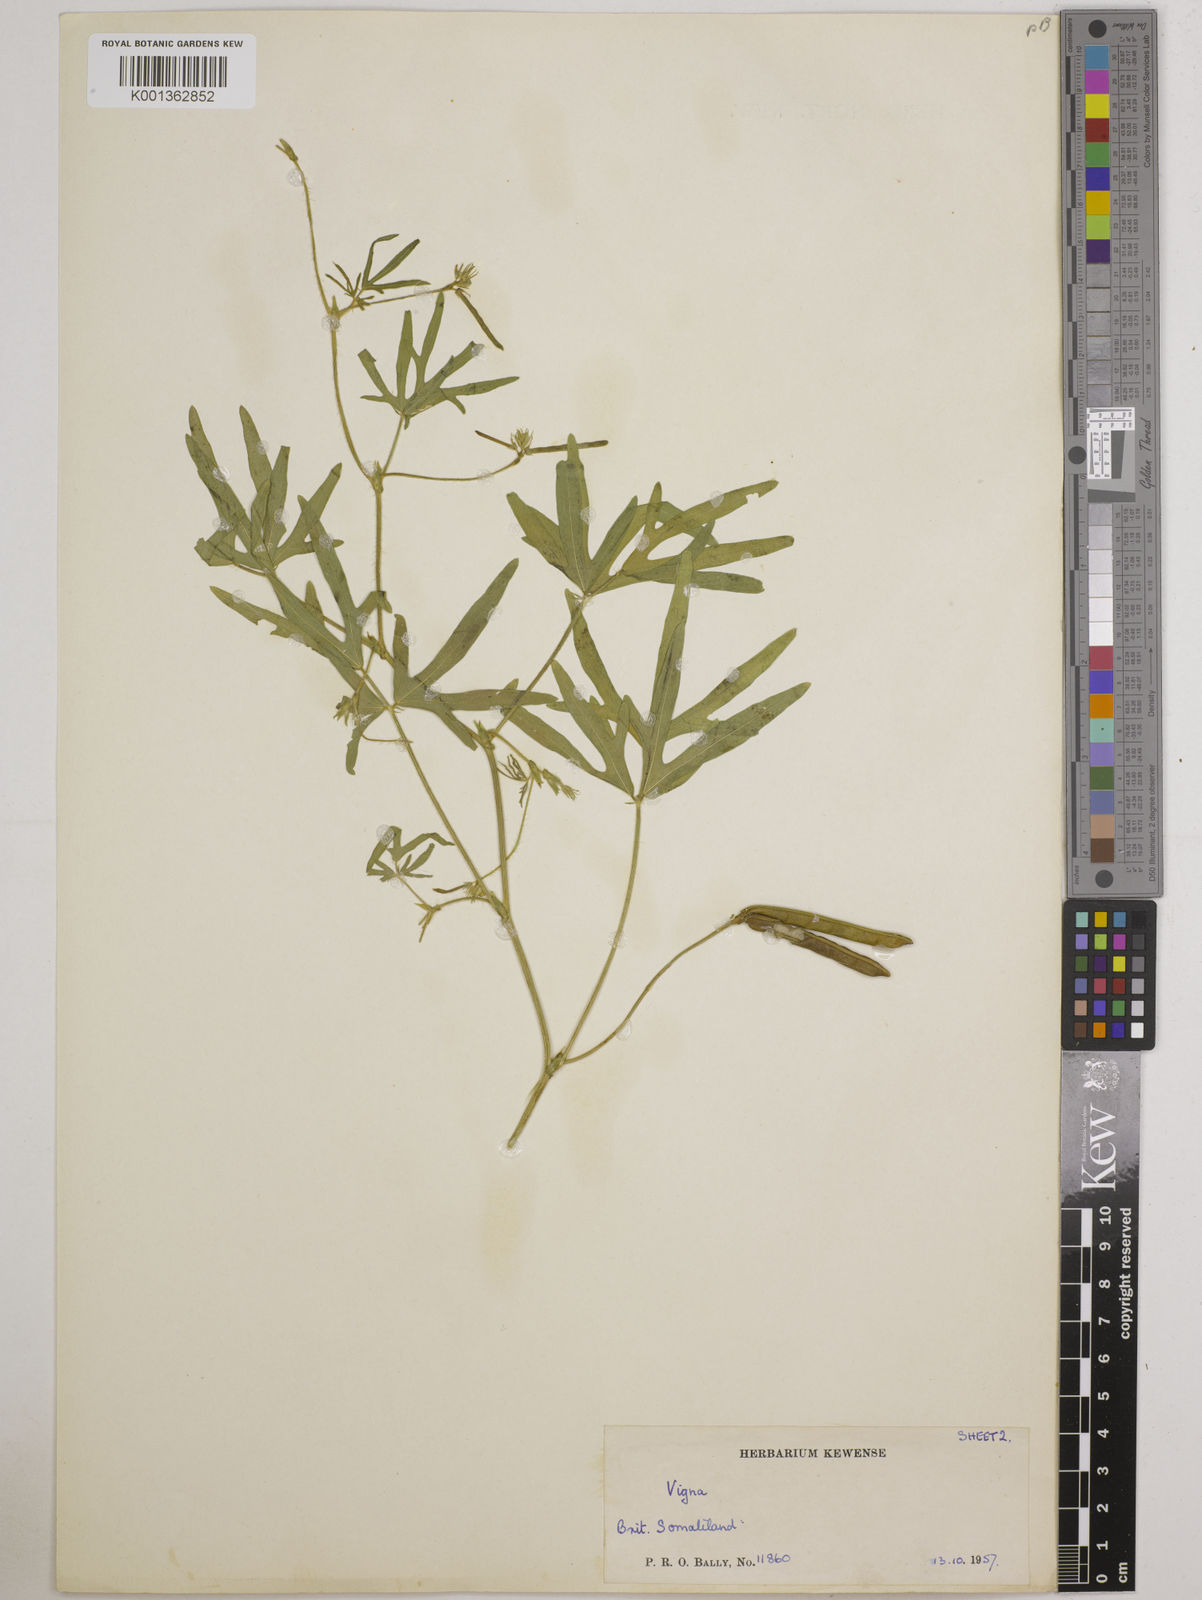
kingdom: Plantae
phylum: Tracheophyta
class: Magnoliopsida
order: Fabales
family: Fabaceae
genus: Vigna
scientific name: Vigna aconitifolia
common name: Dew bean
